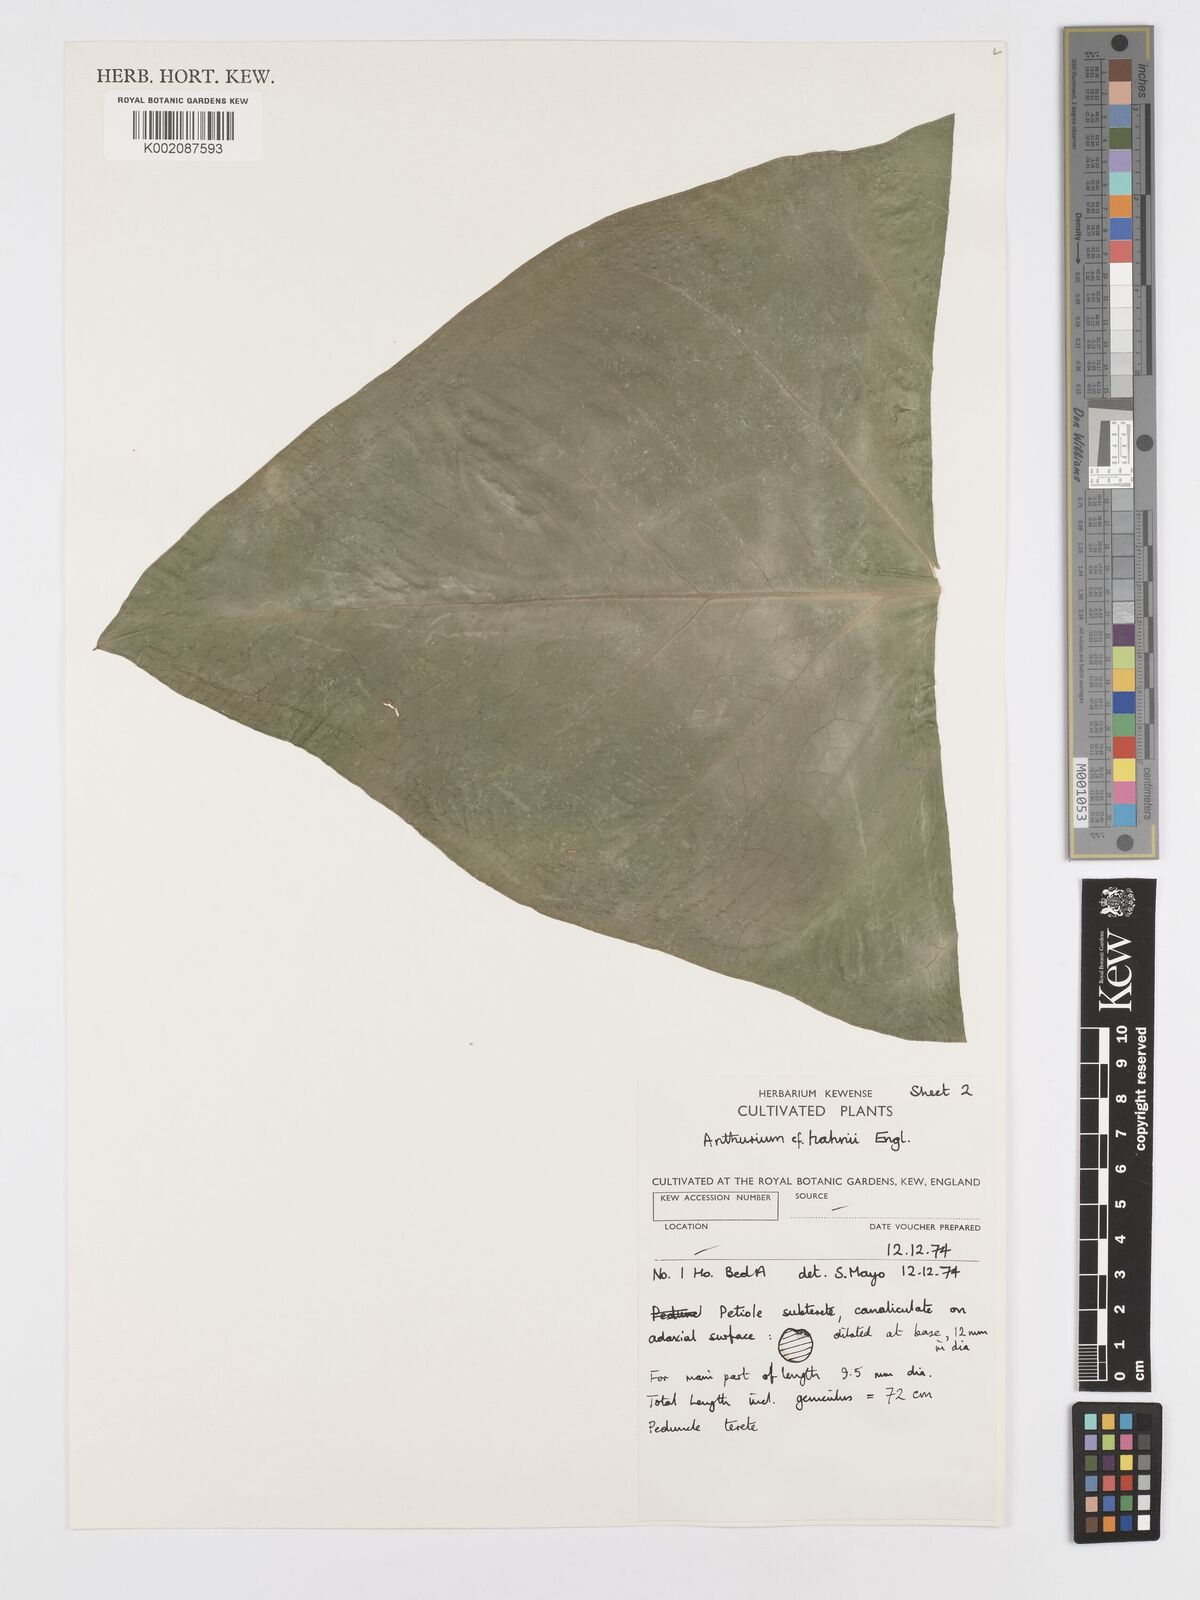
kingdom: Plantae
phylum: Tracheophyta
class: Liliopsida
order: Alismatales
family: Araceae
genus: Anthurium
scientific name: Anthurium grandifolium
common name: Monkey tail
